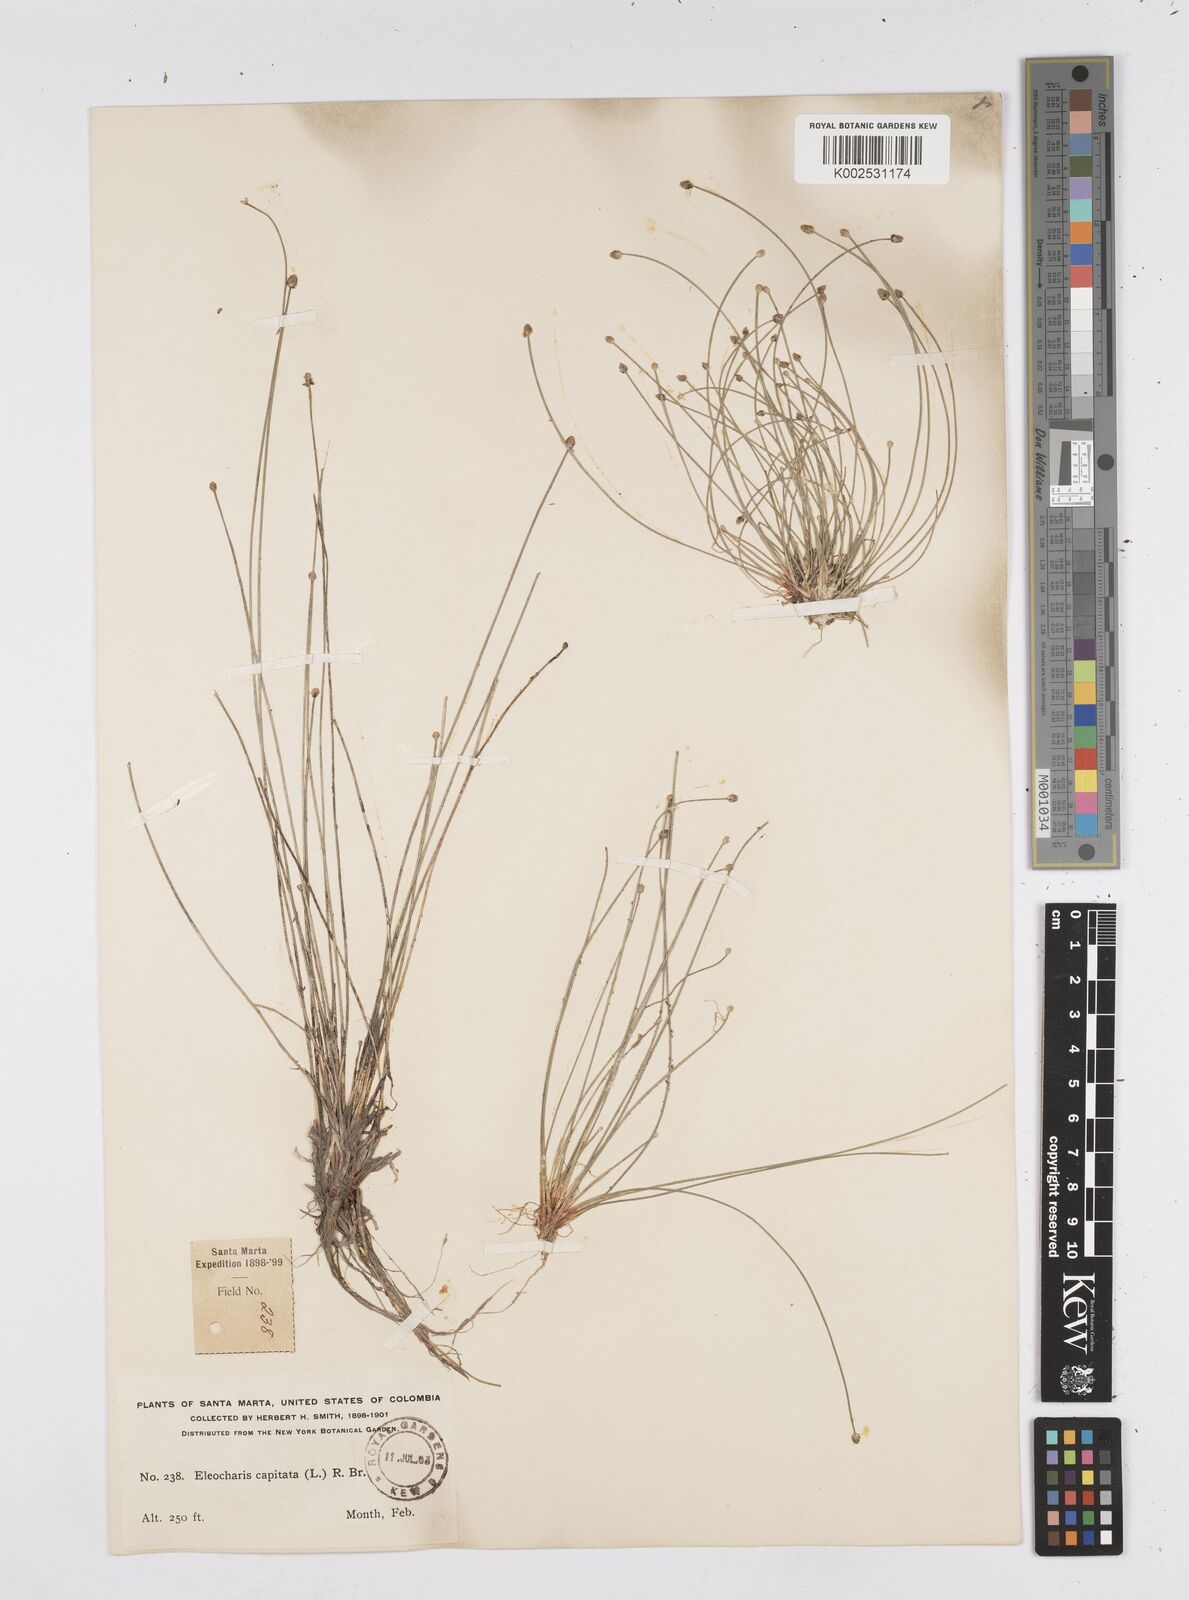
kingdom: Plantae
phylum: Tracheophyta
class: Liliopsida
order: Poales
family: Cyperaceae
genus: Eleocharis
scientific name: Eleocharis geniculata
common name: Canada spikesedge
